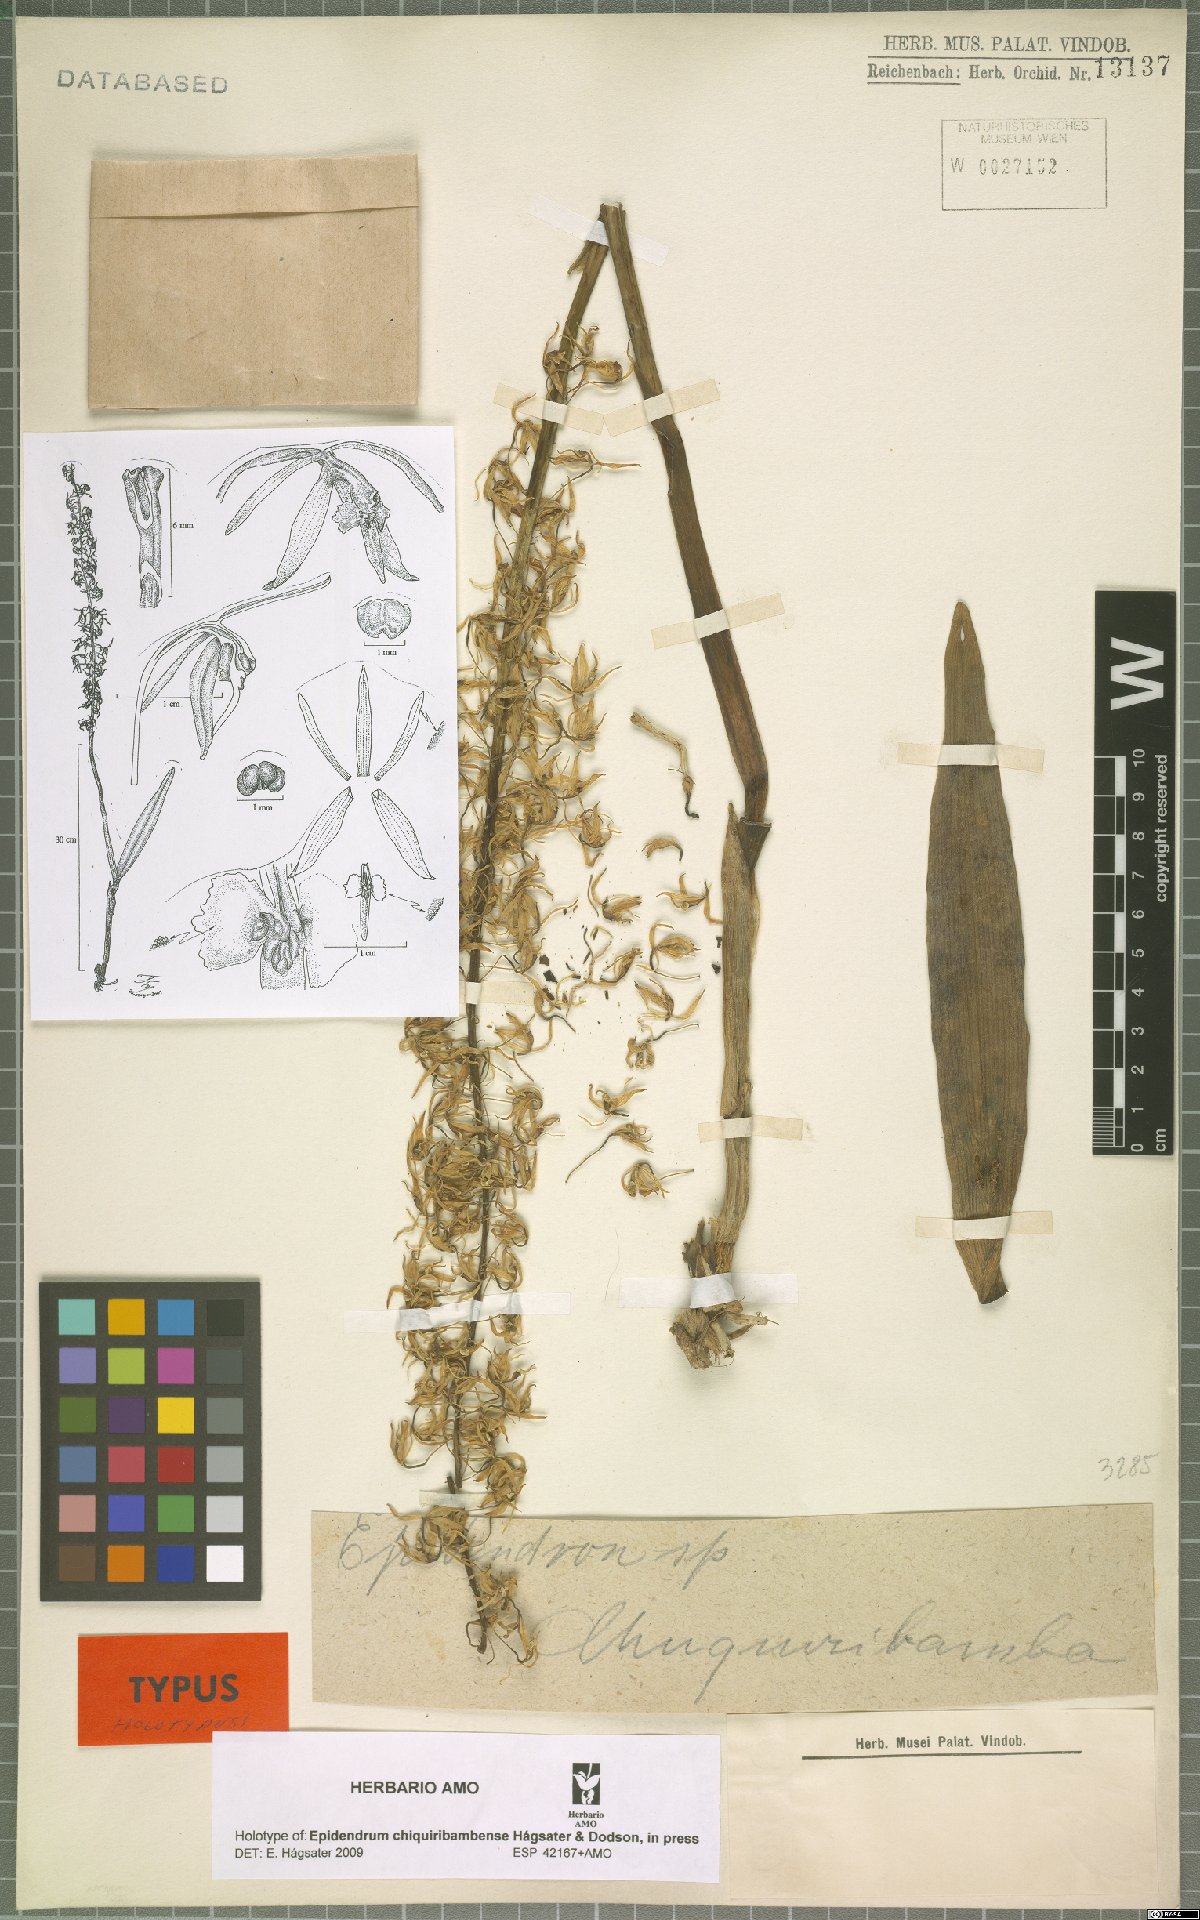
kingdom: Plantae
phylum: Tracheophyta
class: Liliopsida
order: Asparagales
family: Orchidaceae
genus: Epidendrum
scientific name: Epidendrum chiquiribambense
